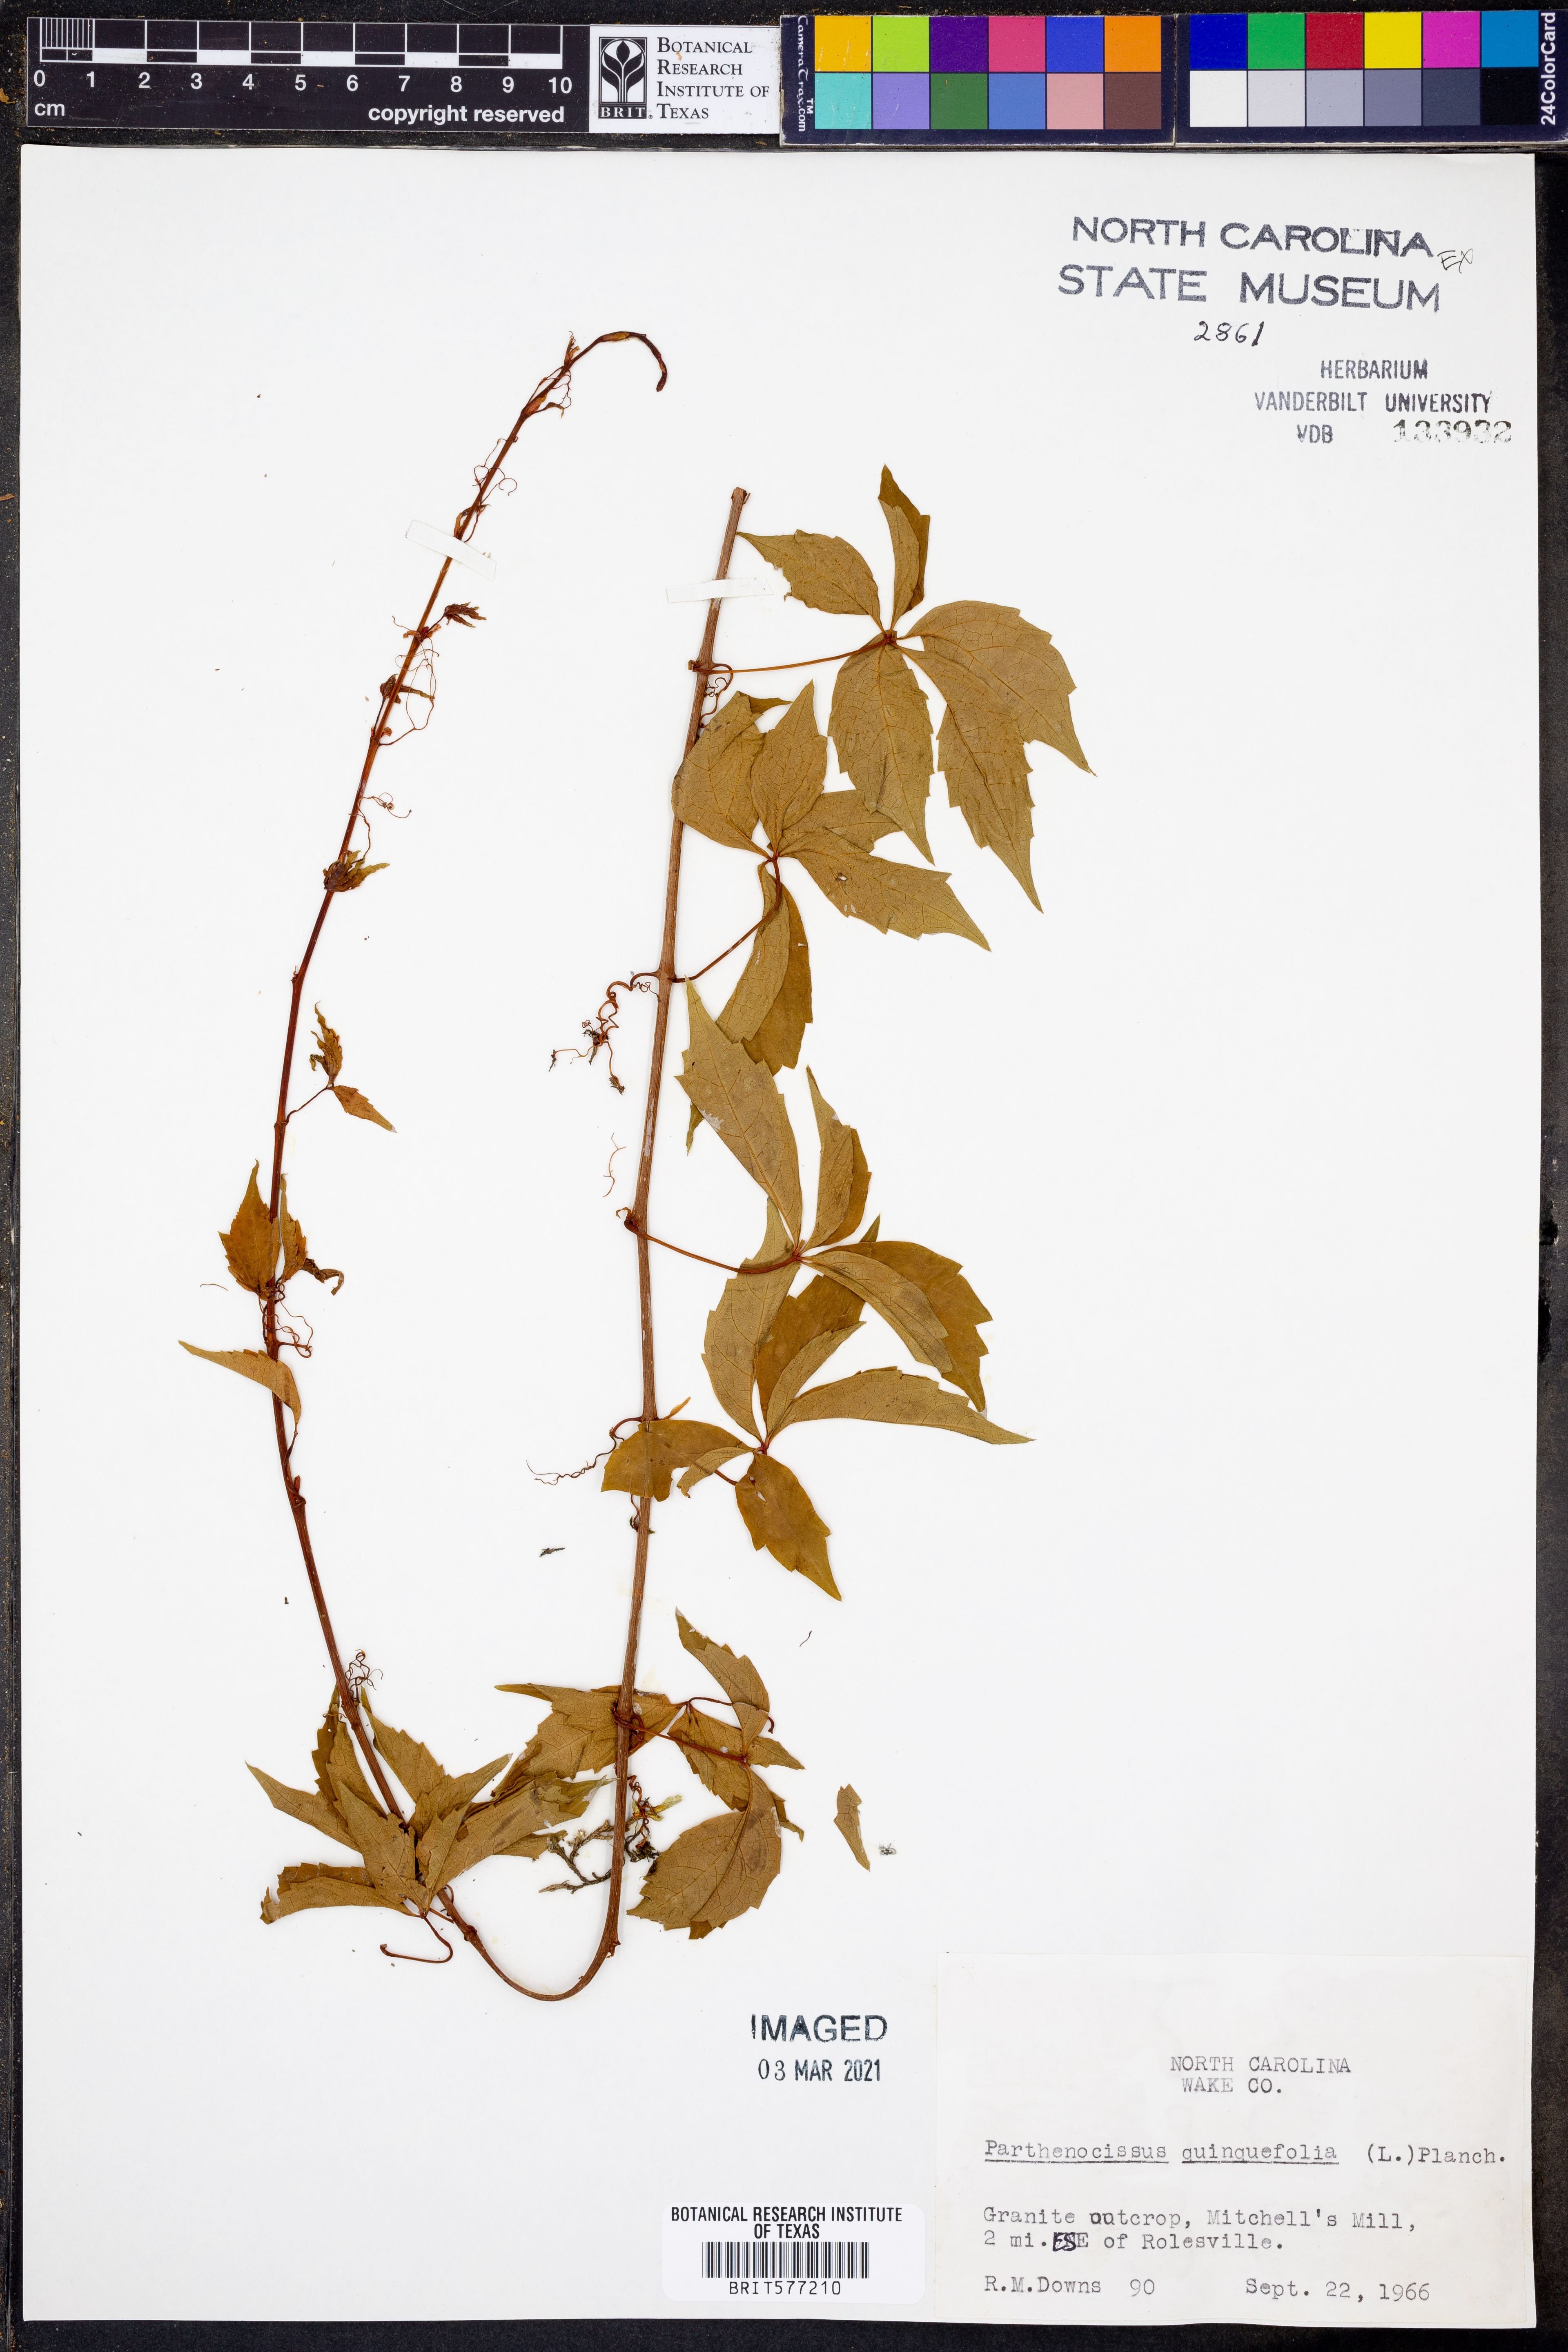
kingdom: Plantae
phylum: Tracheophyta
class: Magnoliopsida
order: Vitales
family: Vitaceae
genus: Parthenocissus
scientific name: Parthenocissus quinquefolia
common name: Virginia-creeper
